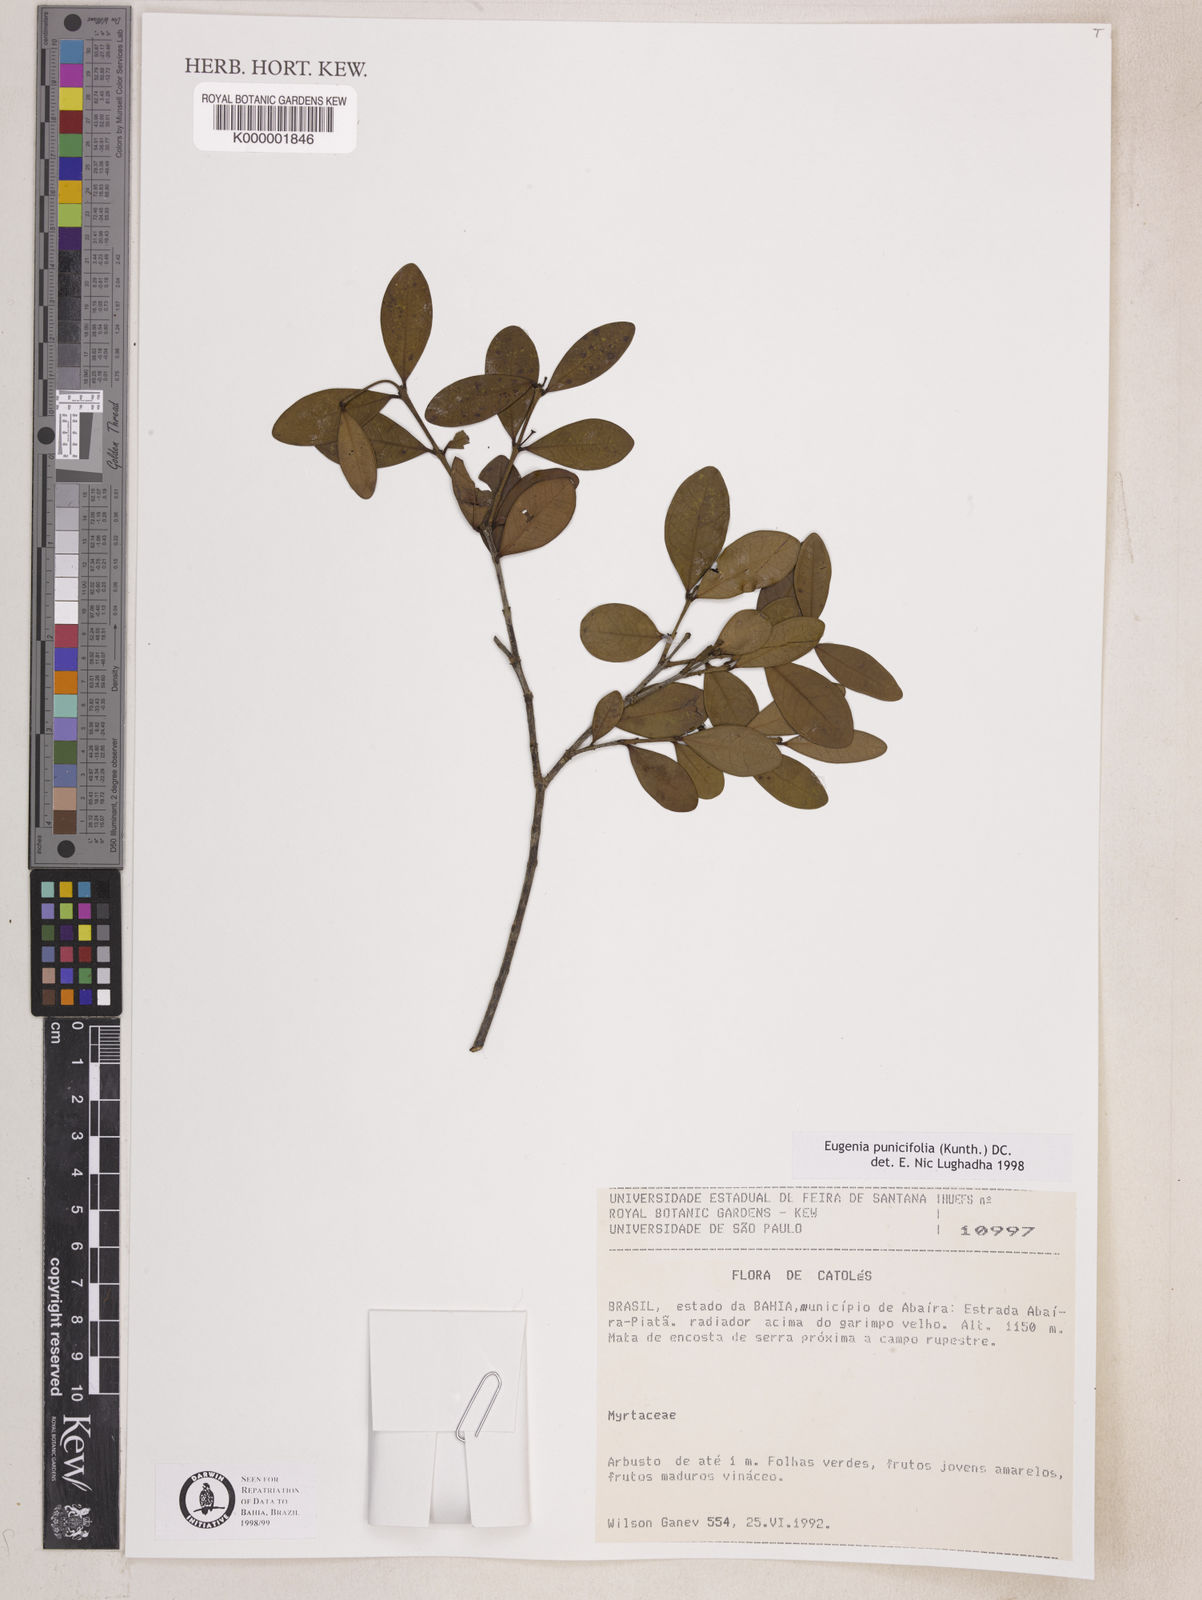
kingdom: Plantae
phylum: Tracheophyta
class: Magnoliopsida
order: Myrtales
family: Myrtaceae
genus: Eugenia
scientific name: Eugenia punicifolia
